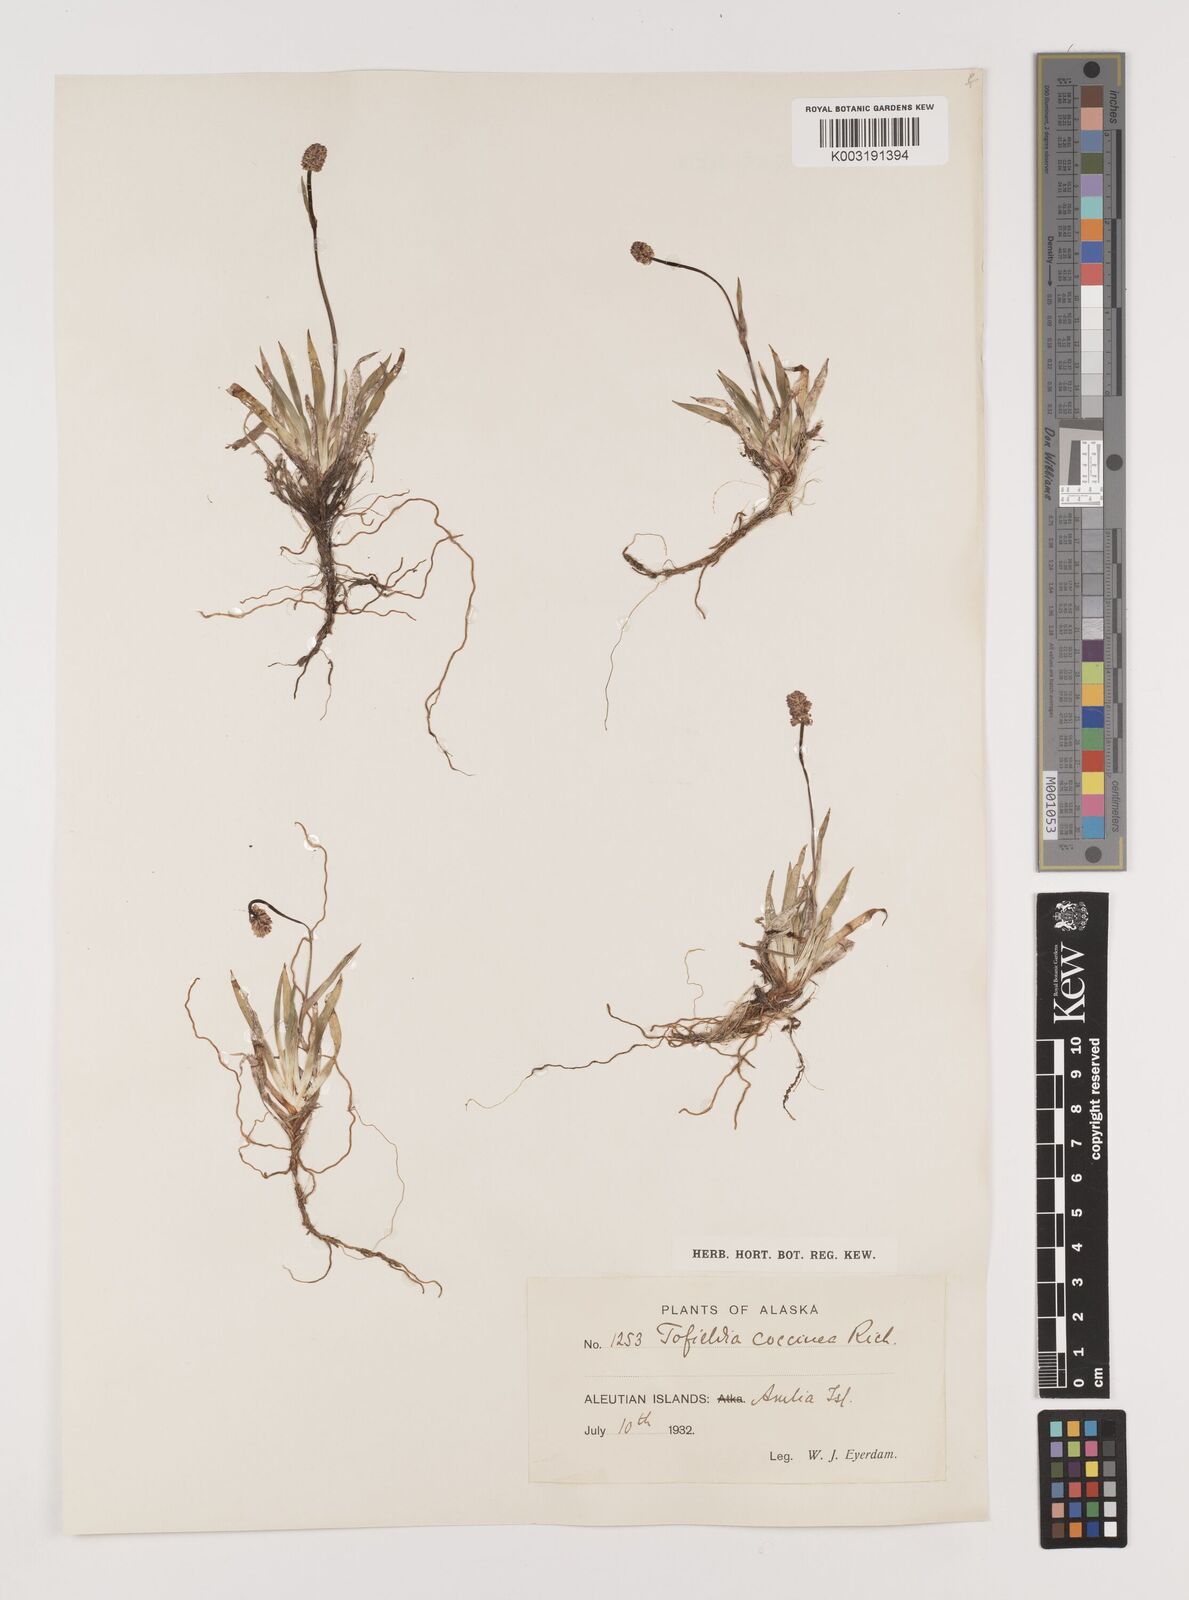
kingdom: Plantae
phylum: Tracheophyta
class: Liliopsida
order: Alismatales
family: Tofieldiaceae
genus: Tofieldia
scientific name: Tofieldia coccinea
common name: Northern false asphodel
